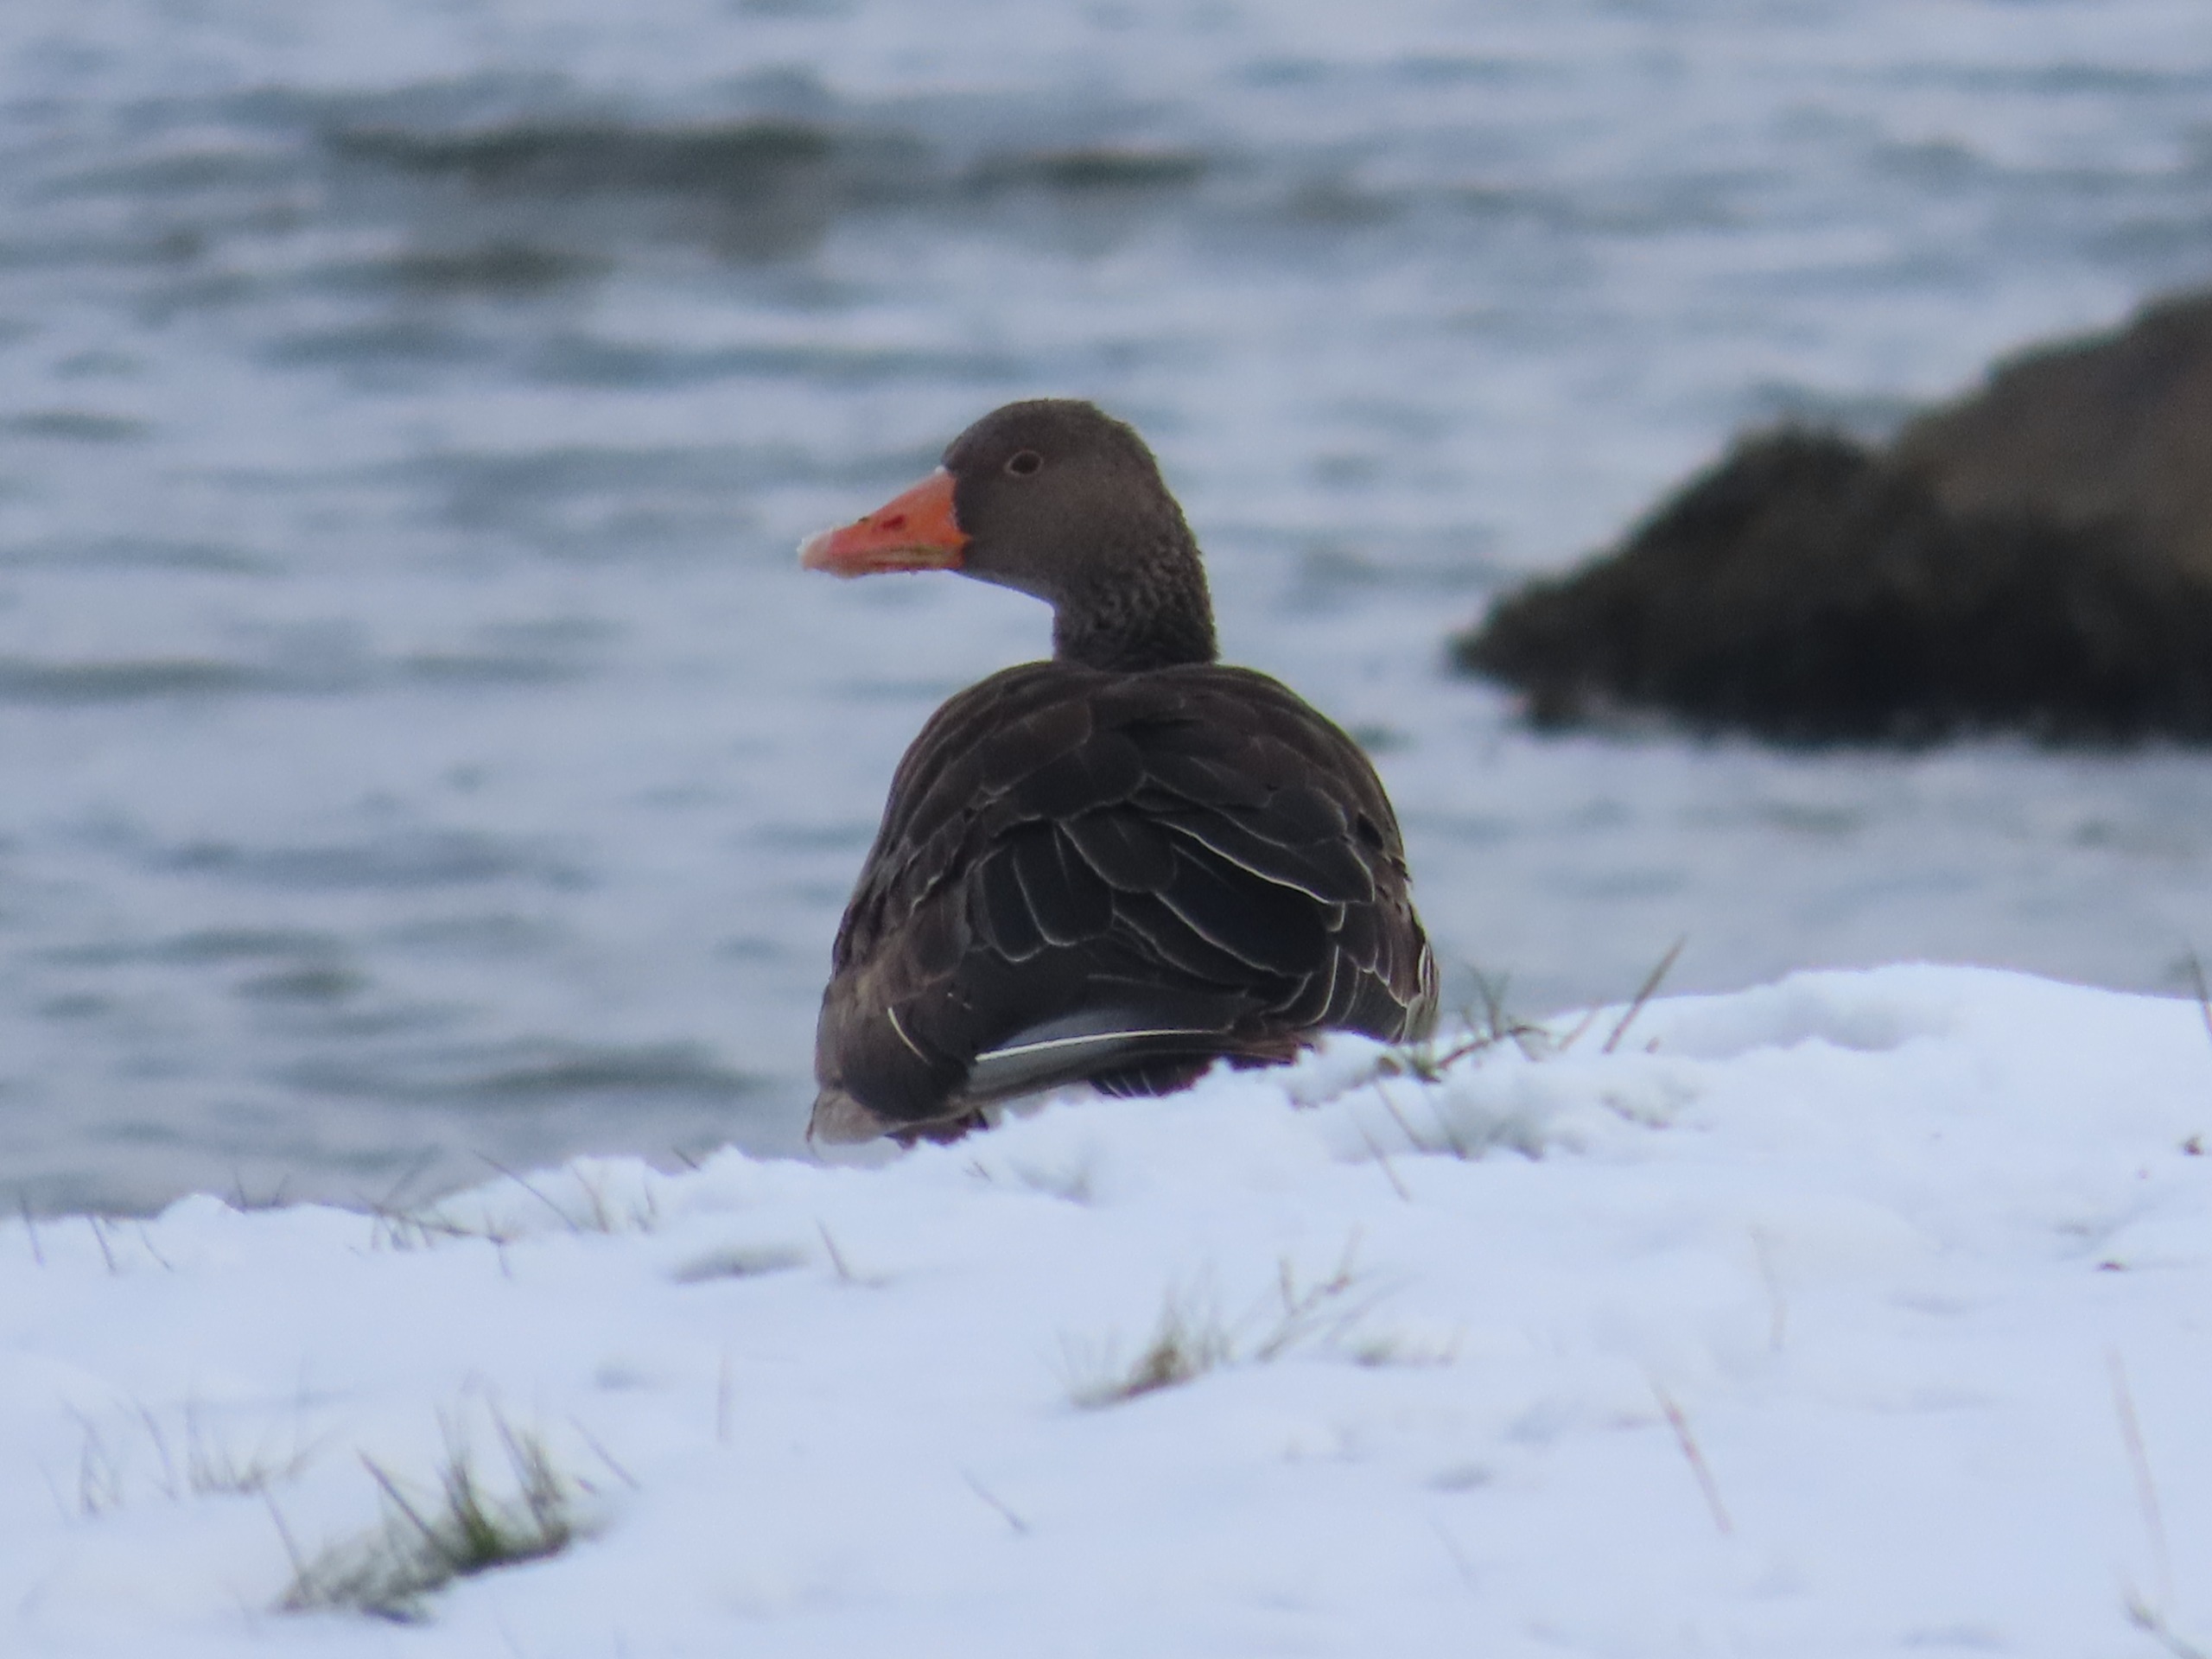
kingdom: Animalia
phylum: Chordata
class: Aves
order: Anseriformes
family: Anatidae
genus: Anser
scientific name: Anser anser
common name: Grågås
